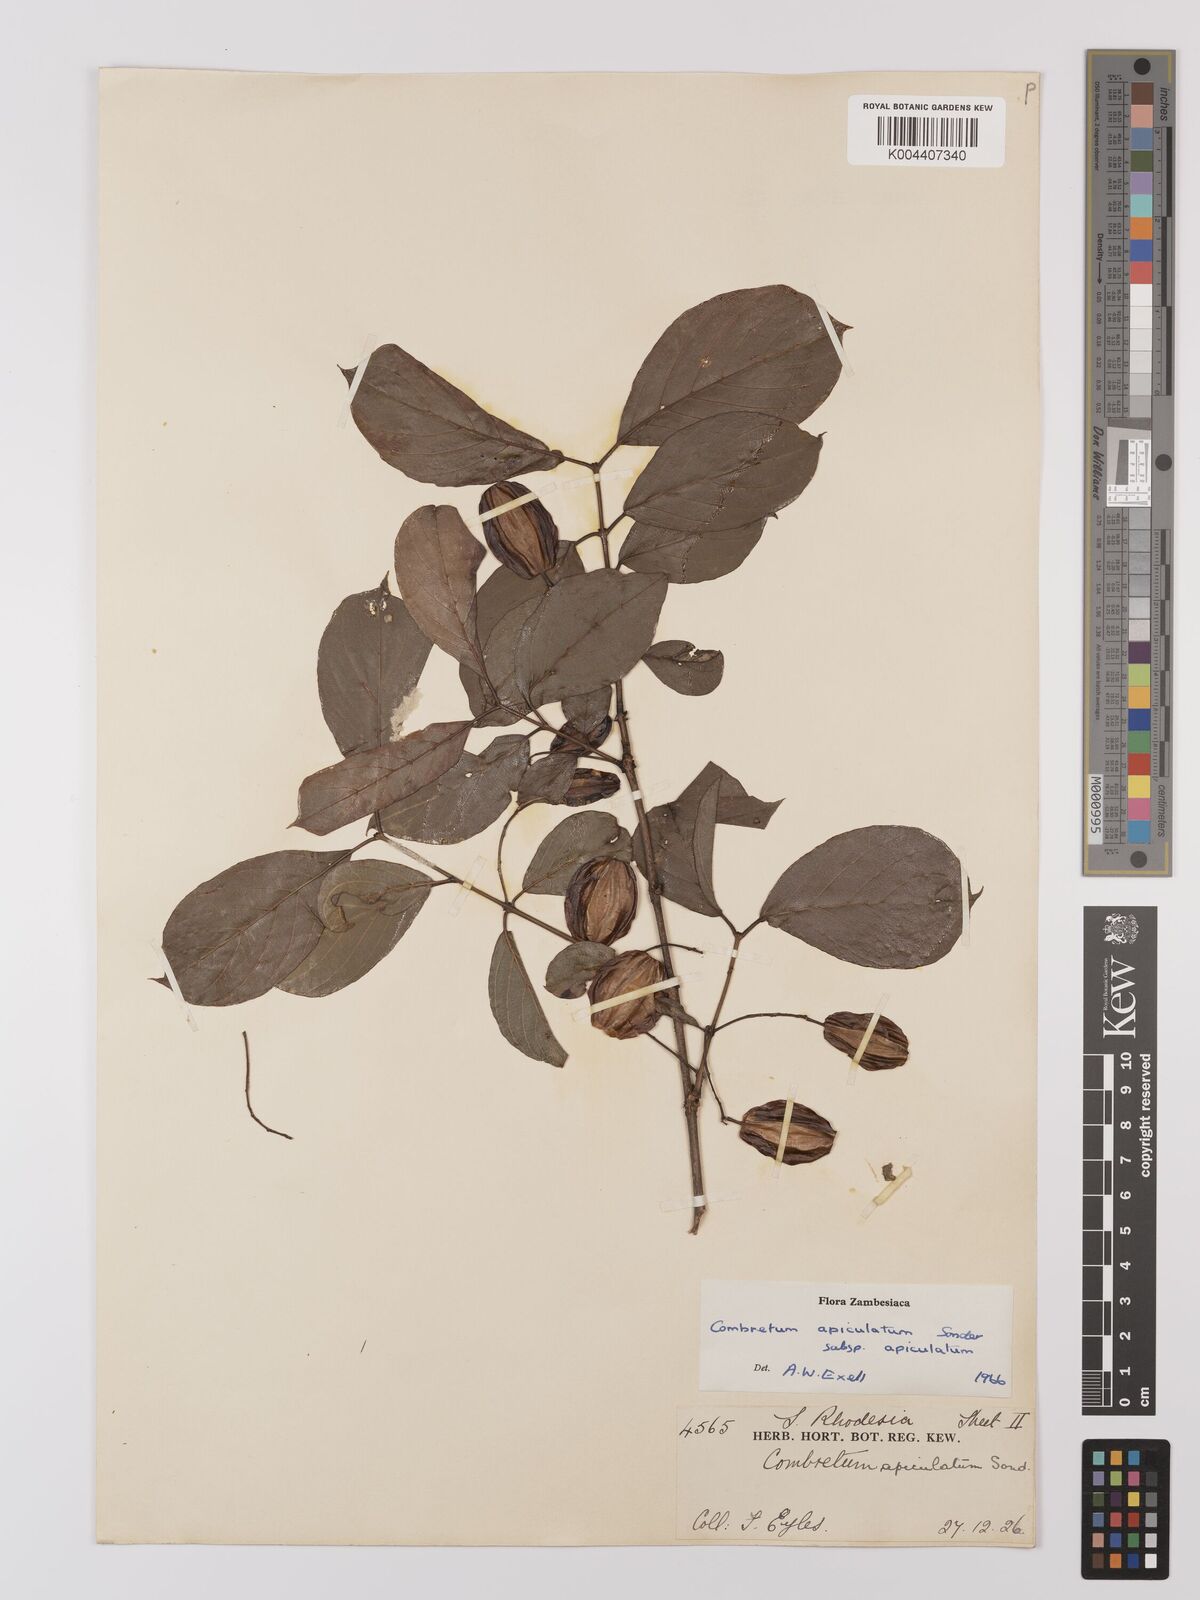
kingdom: Plantae
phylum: Tracheophyta
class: Magnoliopsida
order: Myrtales
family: Combretaceae
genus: Combretum
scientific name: Combretum apiculatum
